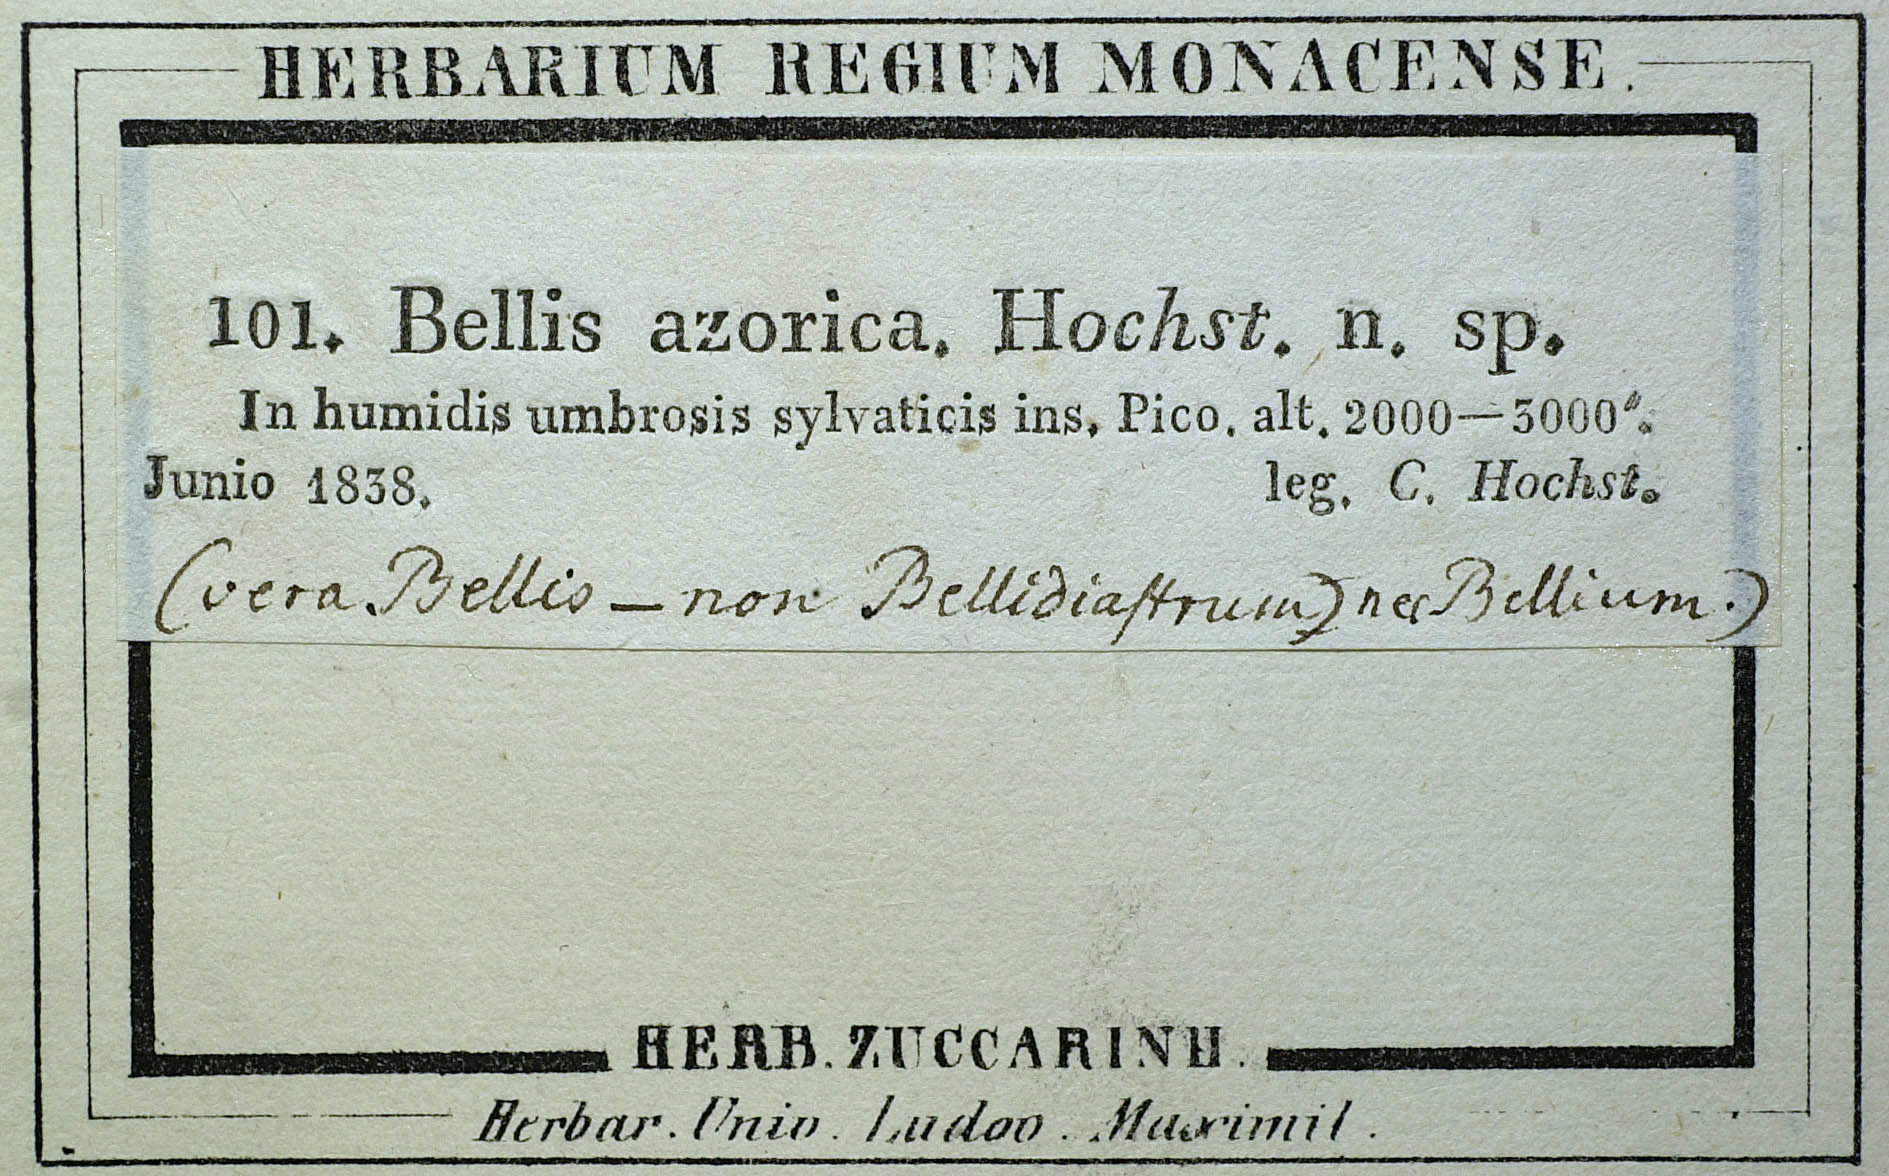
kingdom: Plantae
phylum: Tracheophyta
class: Magnoliopsida
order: Asterales
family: Asteraceae
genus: Bellis
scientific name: Bellis azorica
